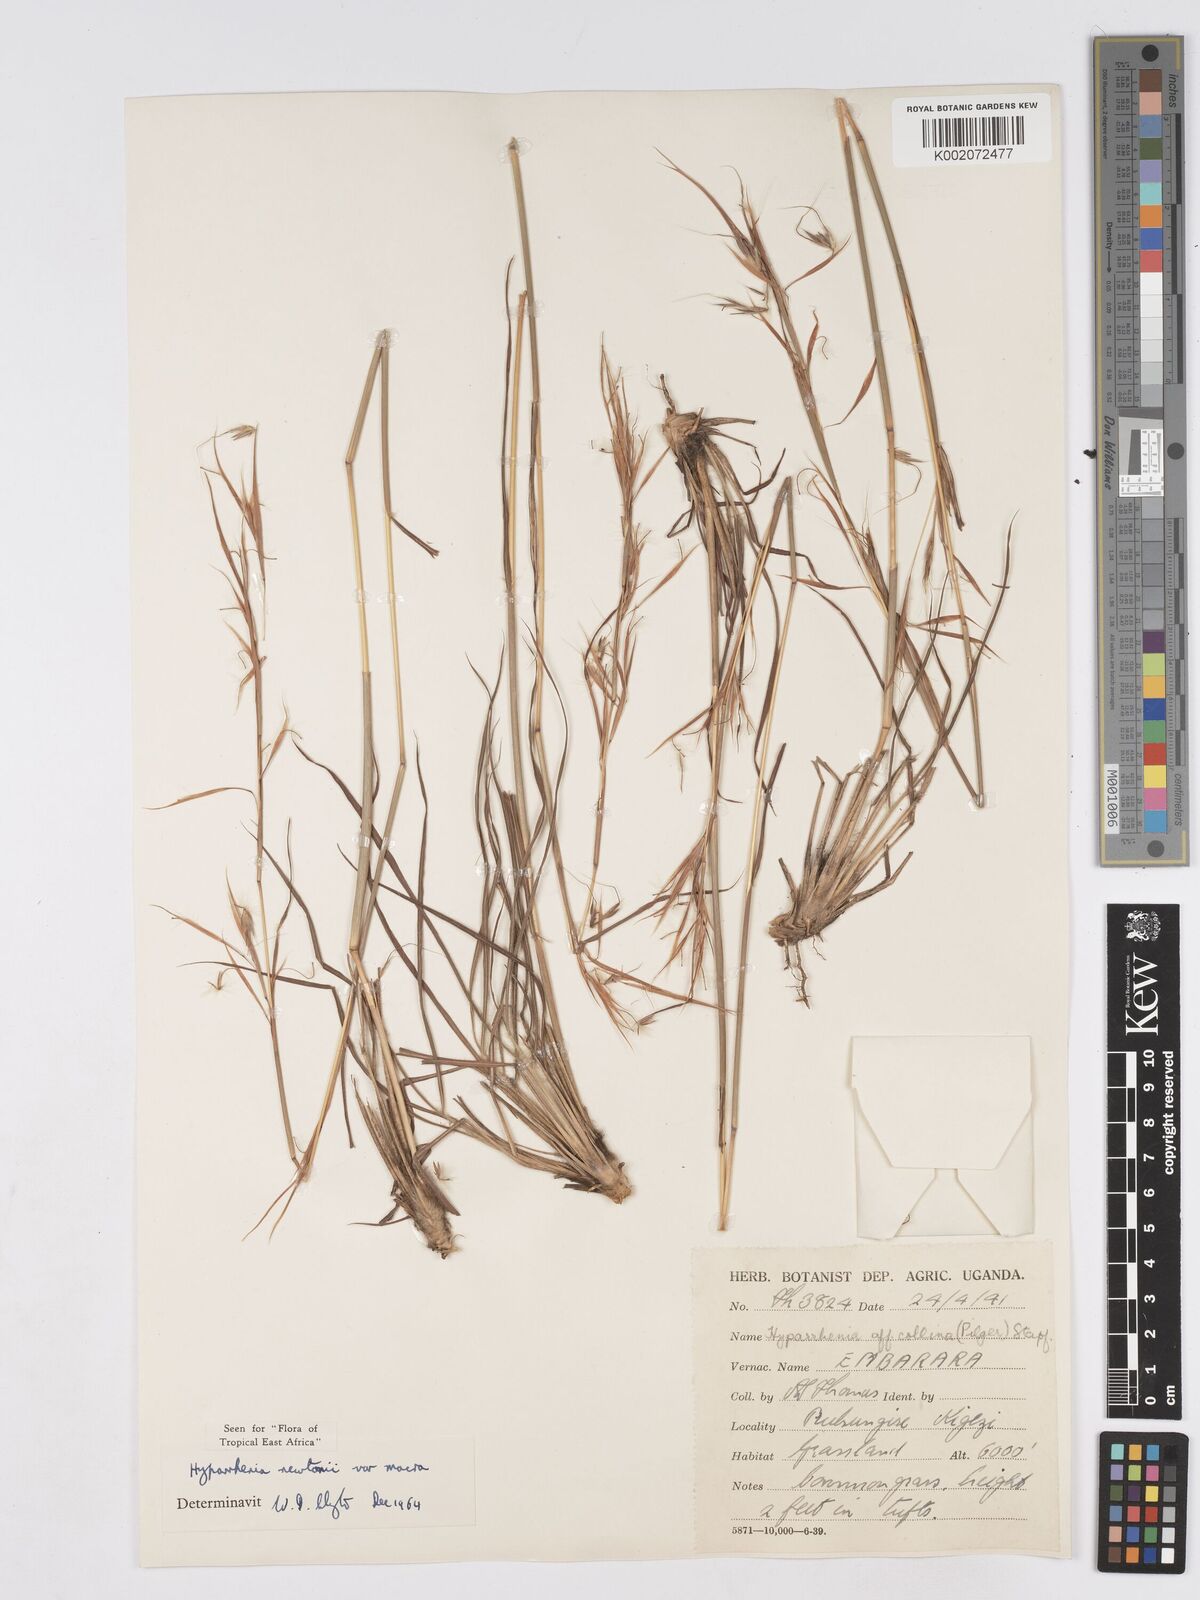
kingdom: Plantae
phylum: Tracheophyta
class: Liliopsida
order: Poales
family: Poaceae
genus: Hyparrhenia
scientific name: Hyparrhenia newtonii
